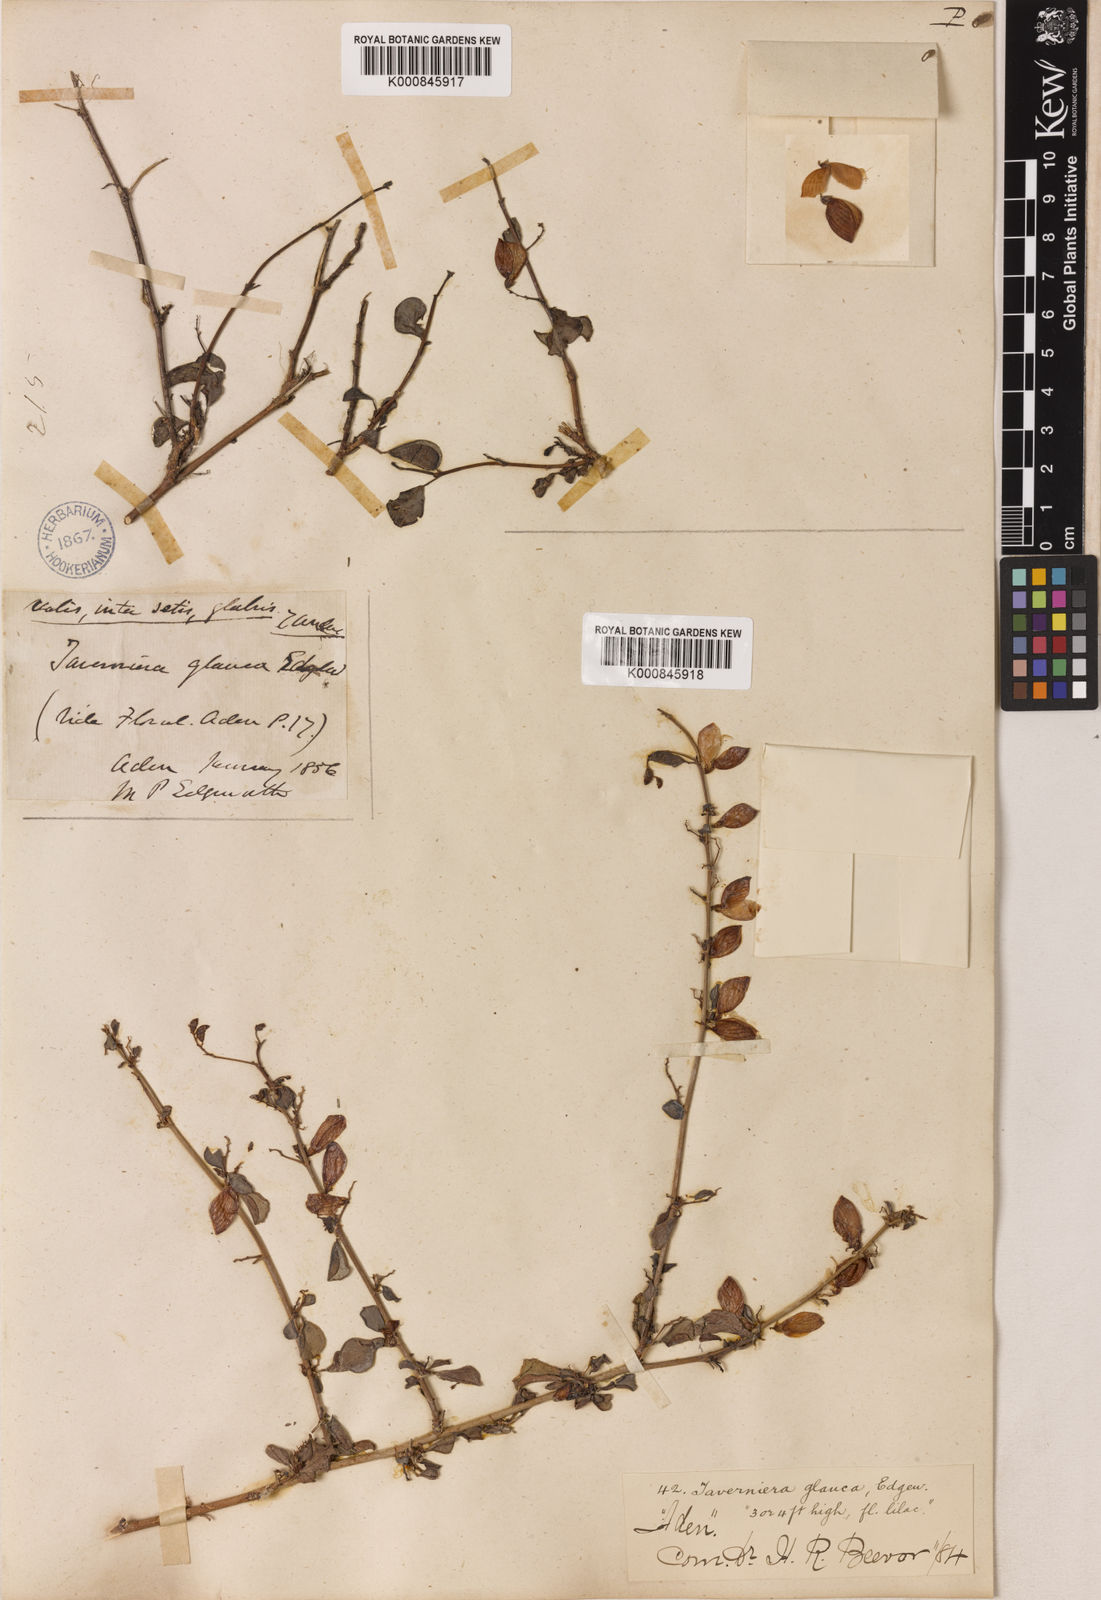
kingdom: Plantae
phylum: Tracheophyta
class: Magnoliopsida
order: Fabales
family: Fabaceae
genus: Taverniera
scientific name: Taverniera glauca
